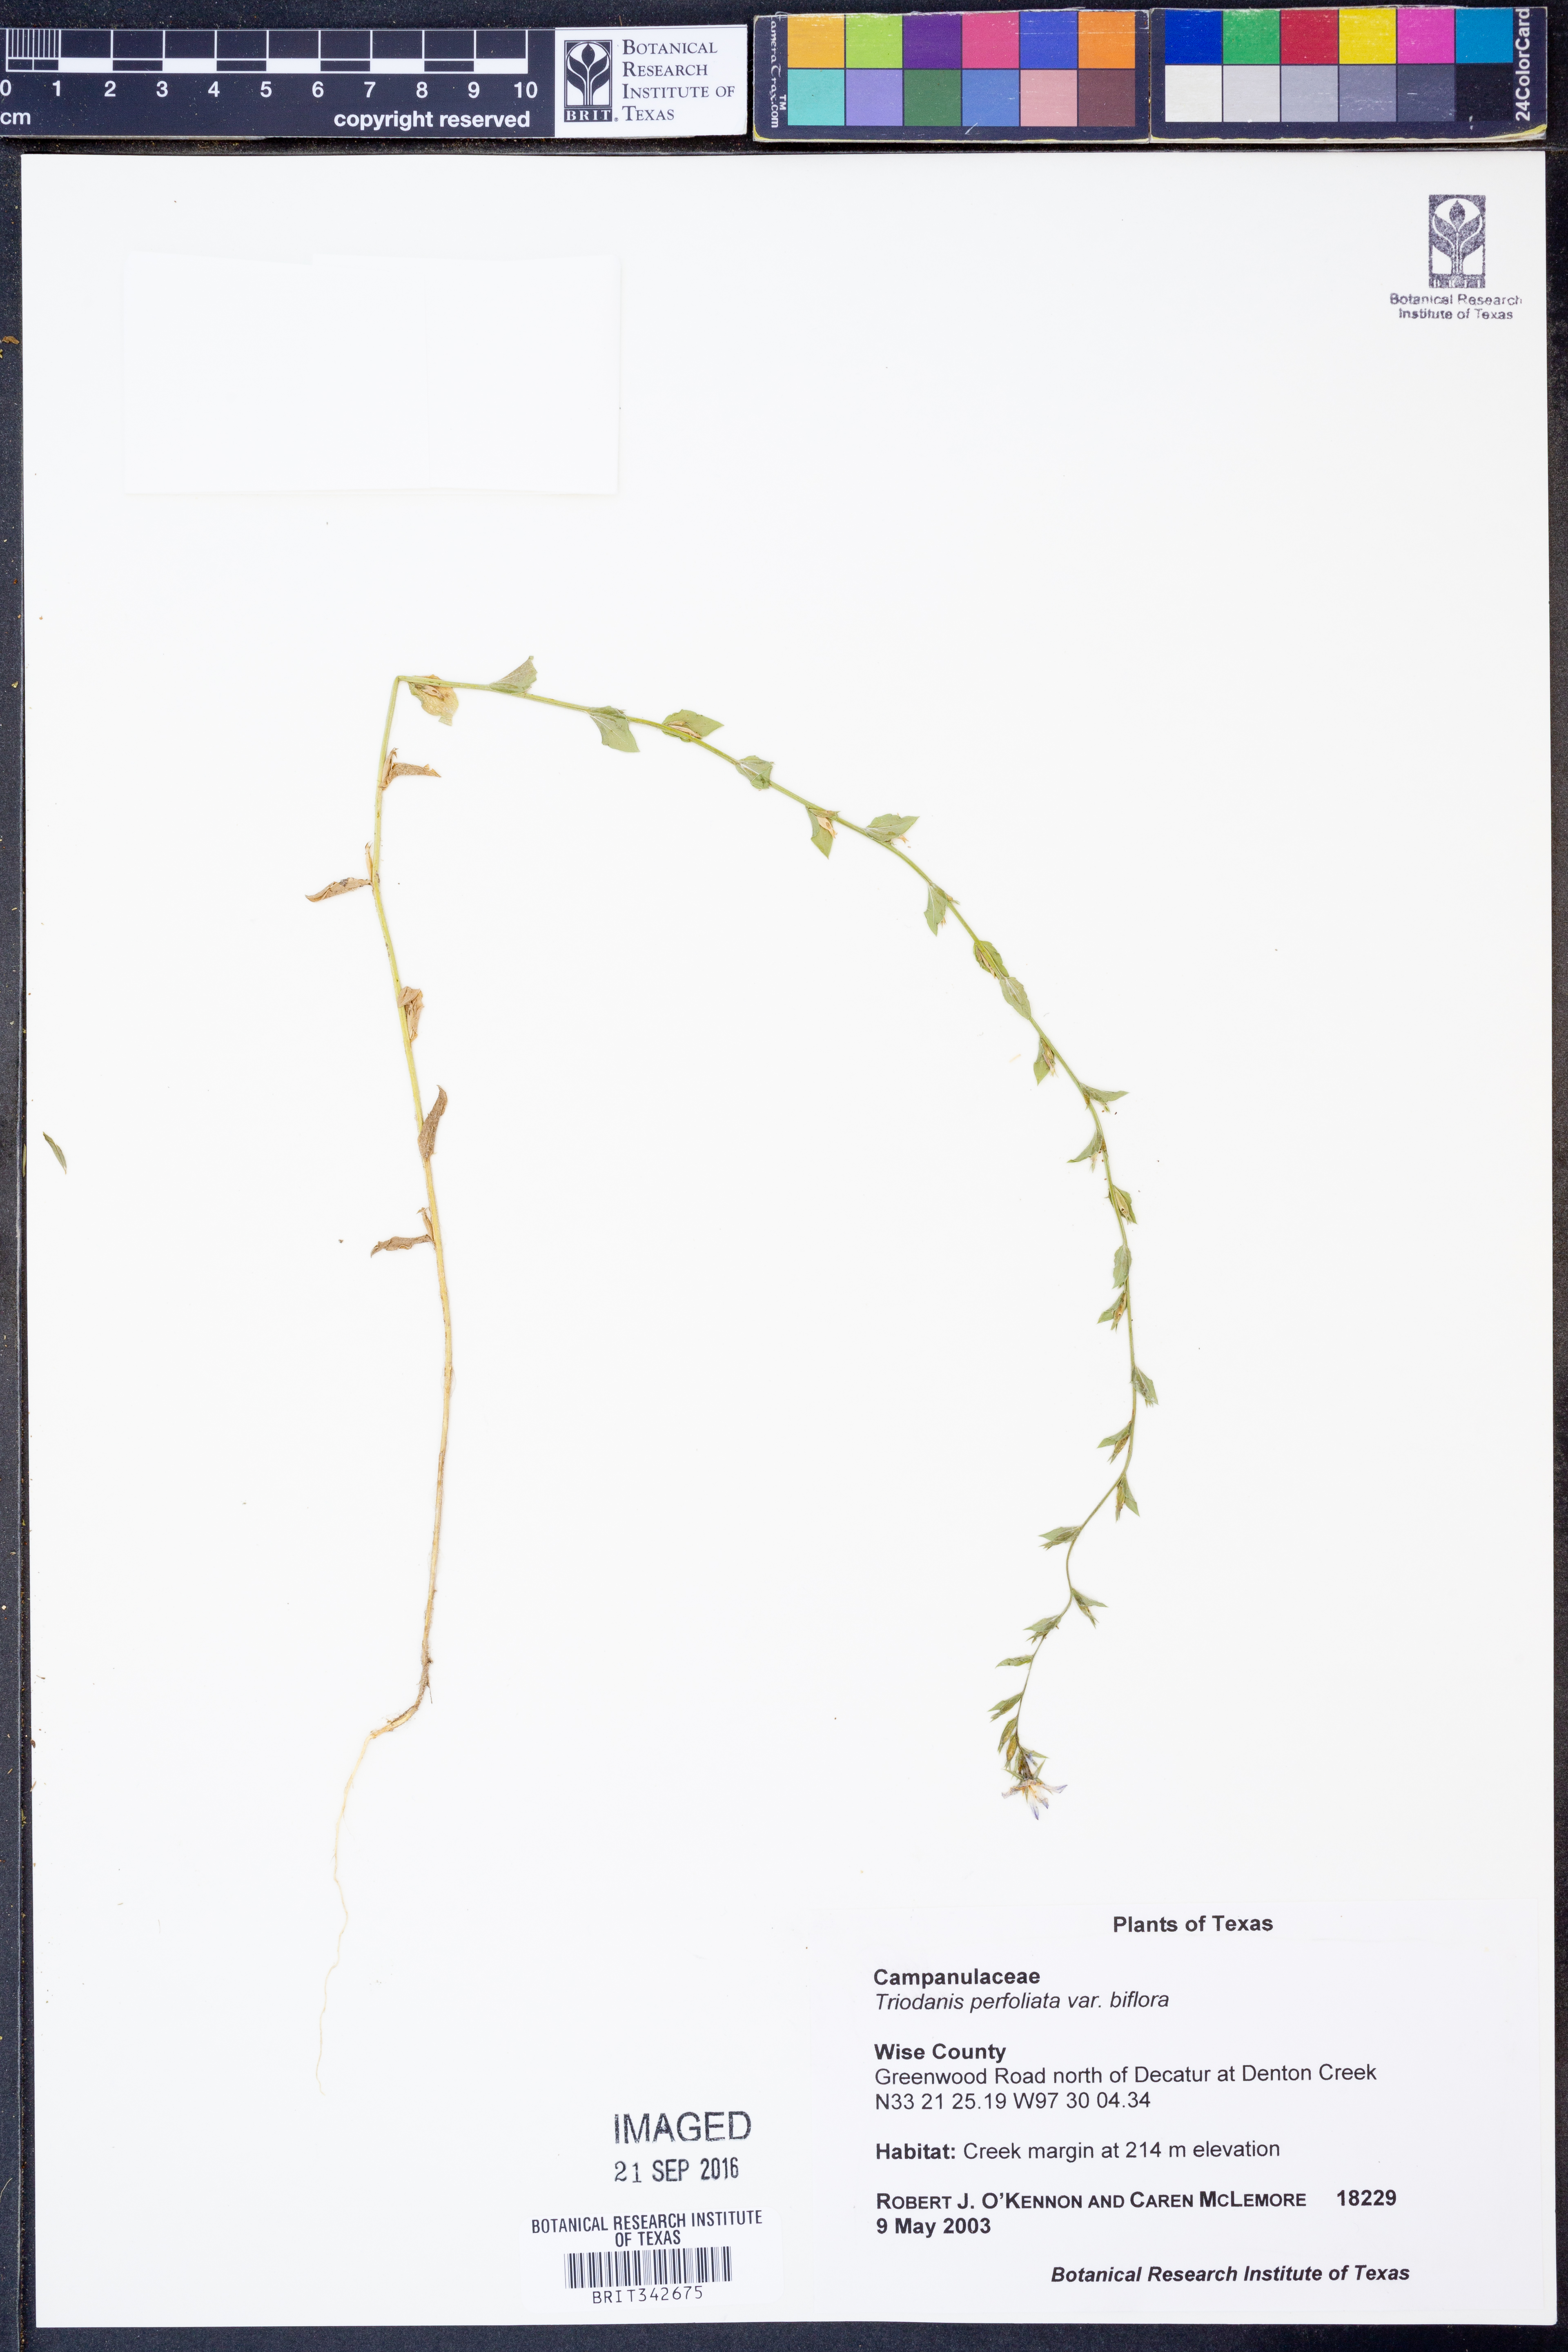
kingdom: Plantae
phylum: Tracheophyta
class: Magnoliopsida
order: Asterales
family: Campanulaceae
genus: Triodanis
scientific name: Triodanis perfoliata
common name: Clasping venus' looking-glass
